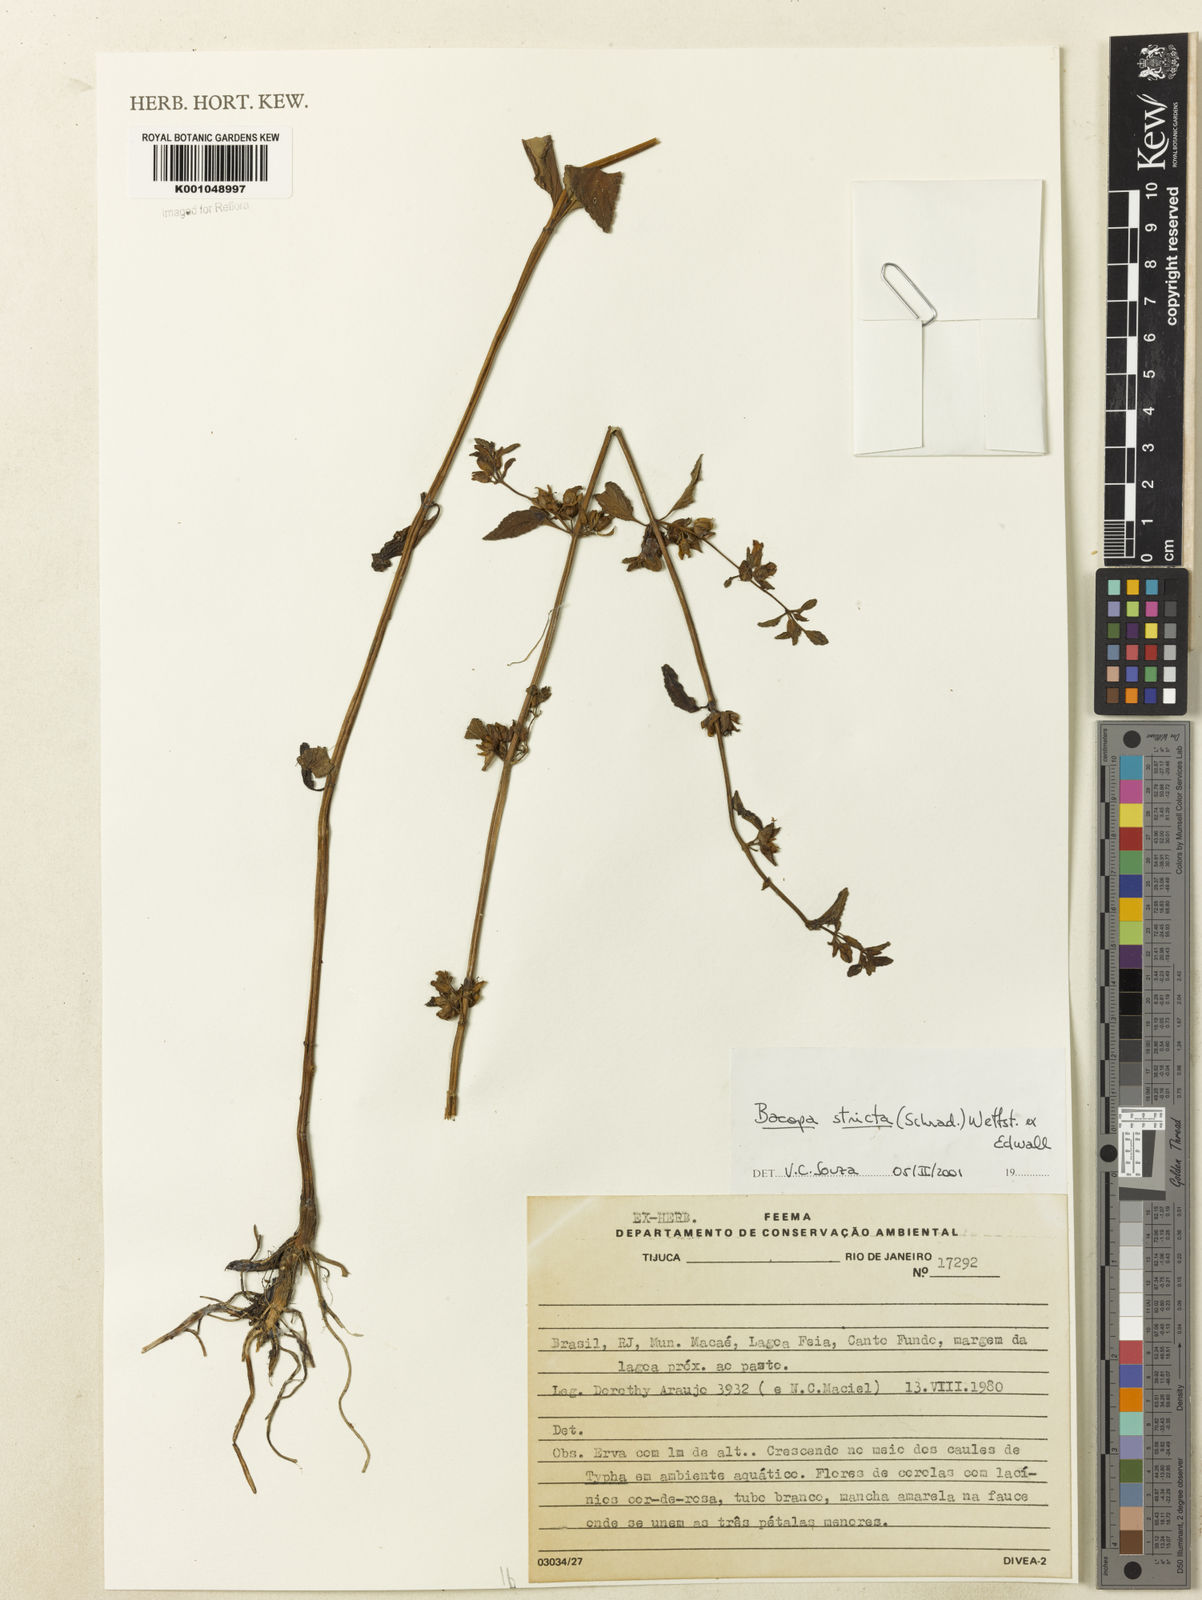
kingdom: Plantae
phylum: Tracheophyta
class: Magnoliopsida
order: Lamiales
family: Plantaginaceae
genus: Bacopa
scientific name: Bacopa stricta
